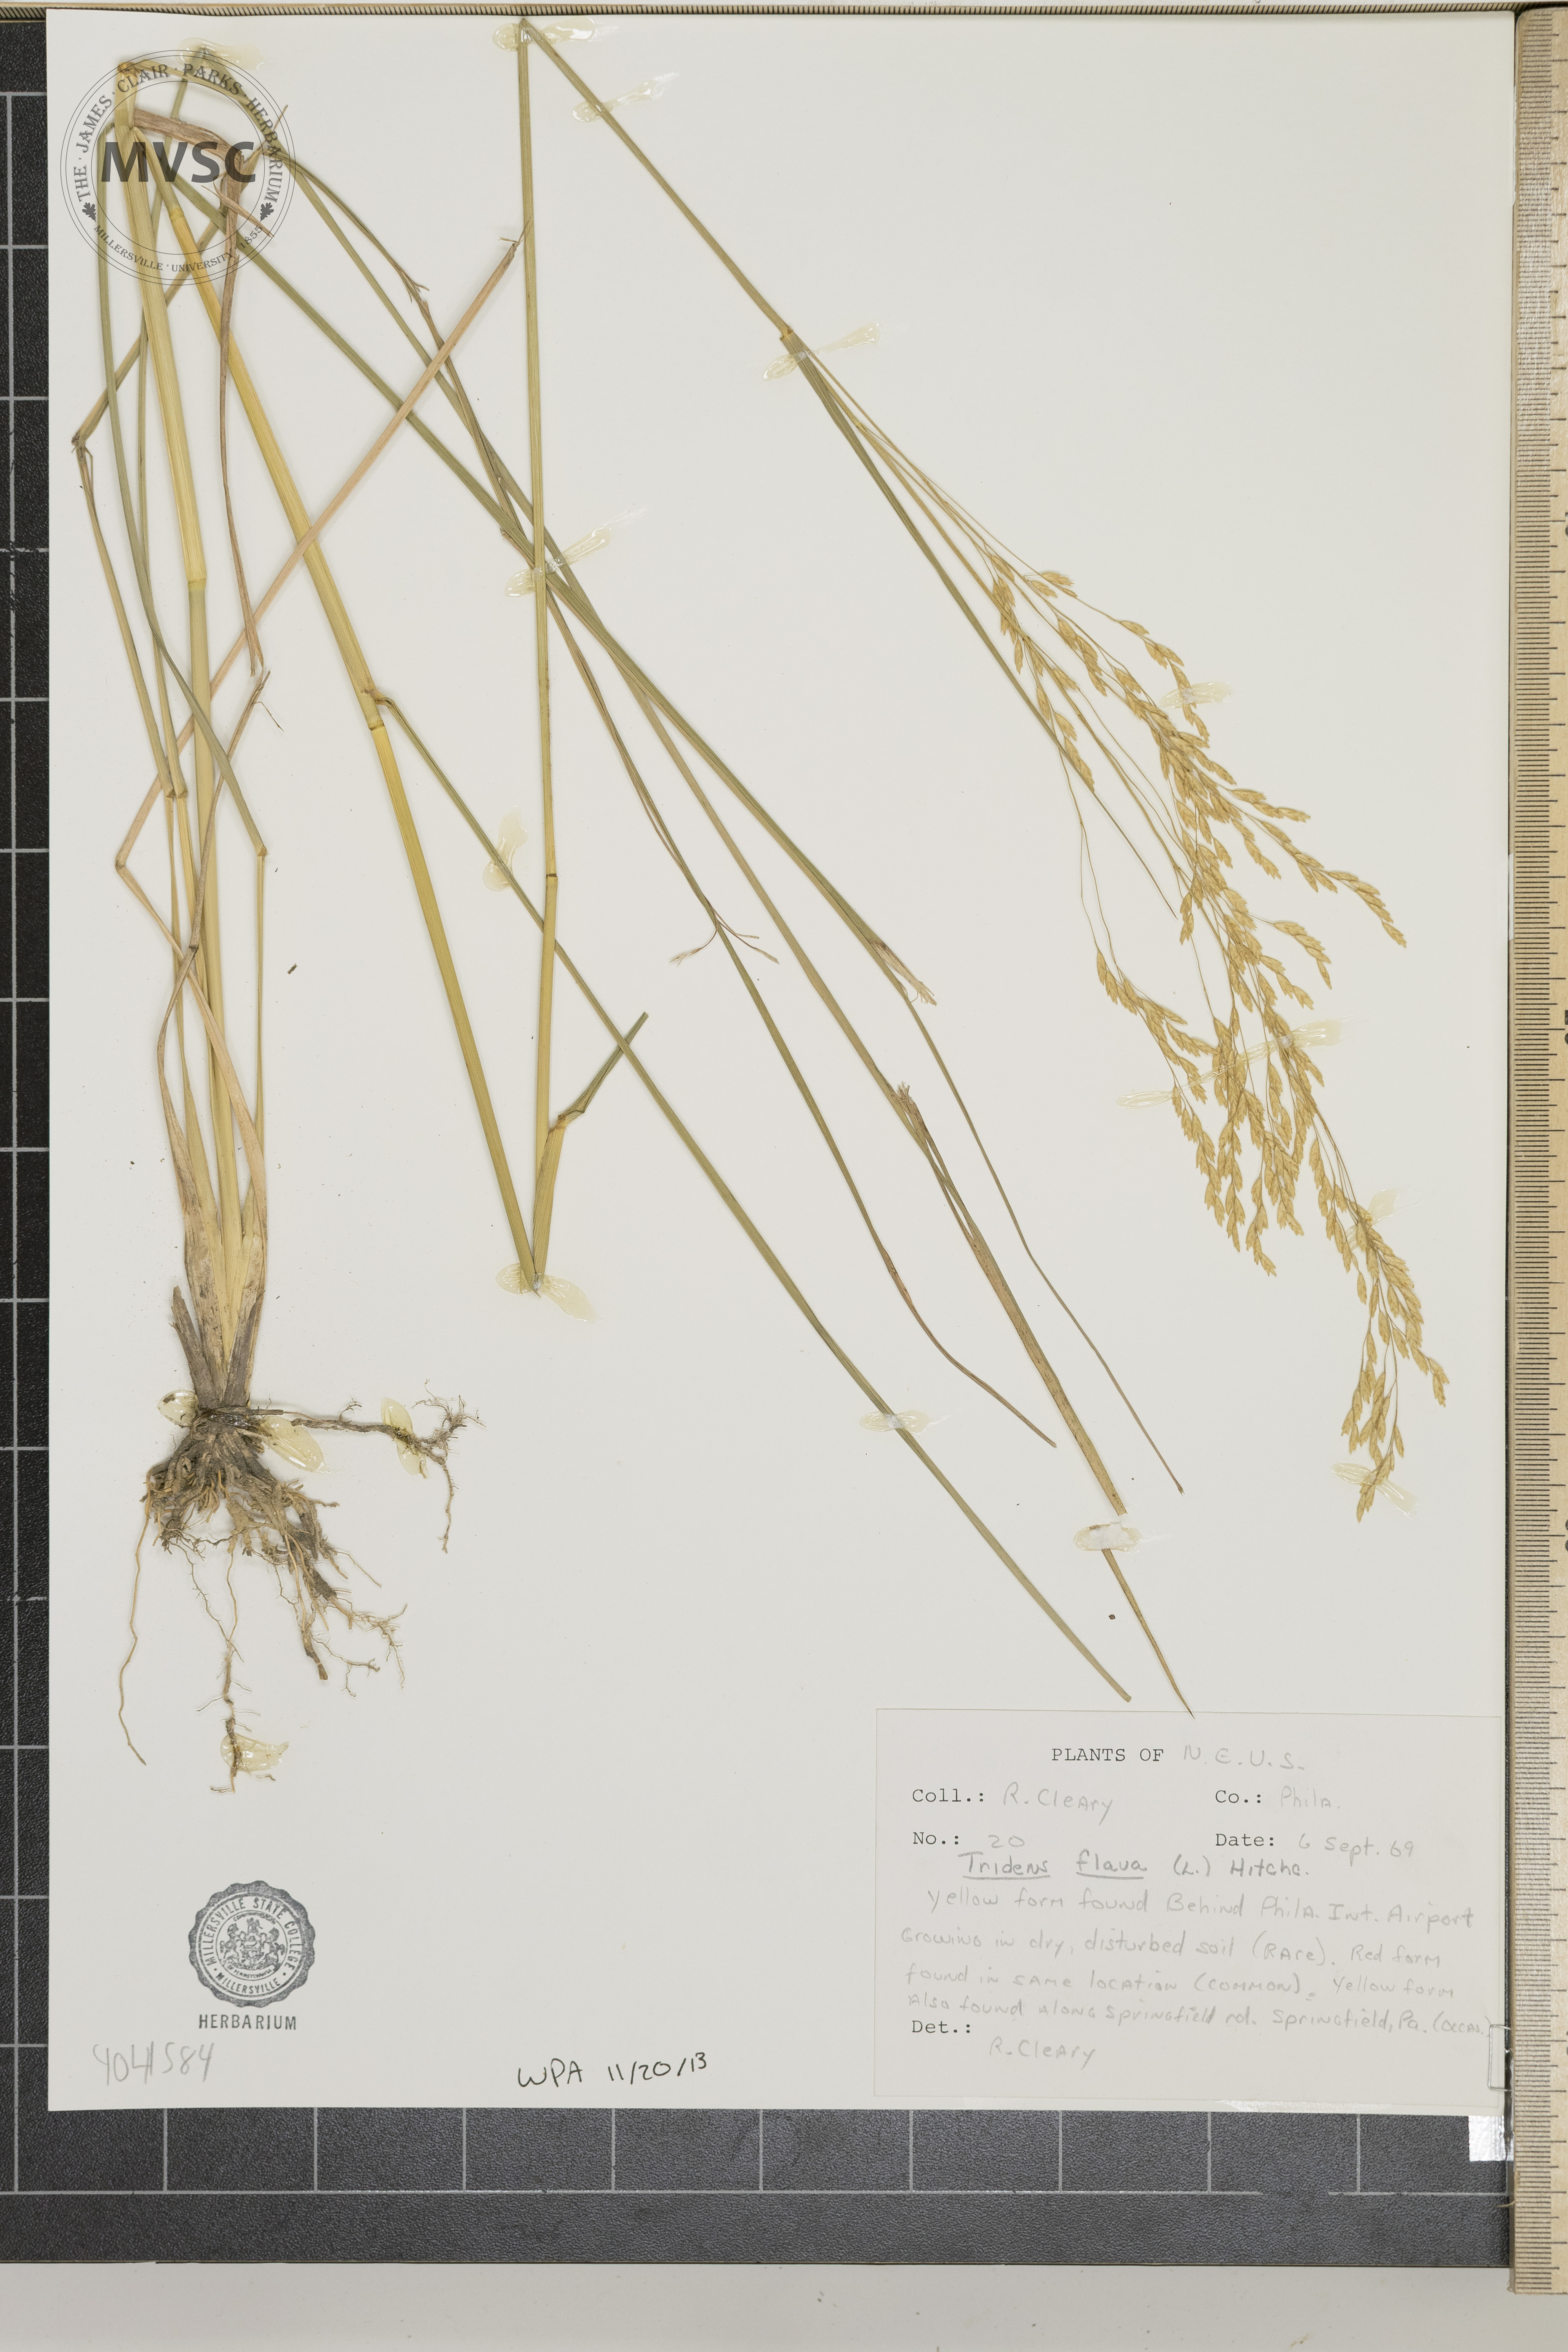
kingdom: Plantae
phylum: Tracheophyta
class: Liliopsida
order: Poales
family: Poaceae
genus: Tridens
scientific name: Tridens flavus
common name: Purpletop
